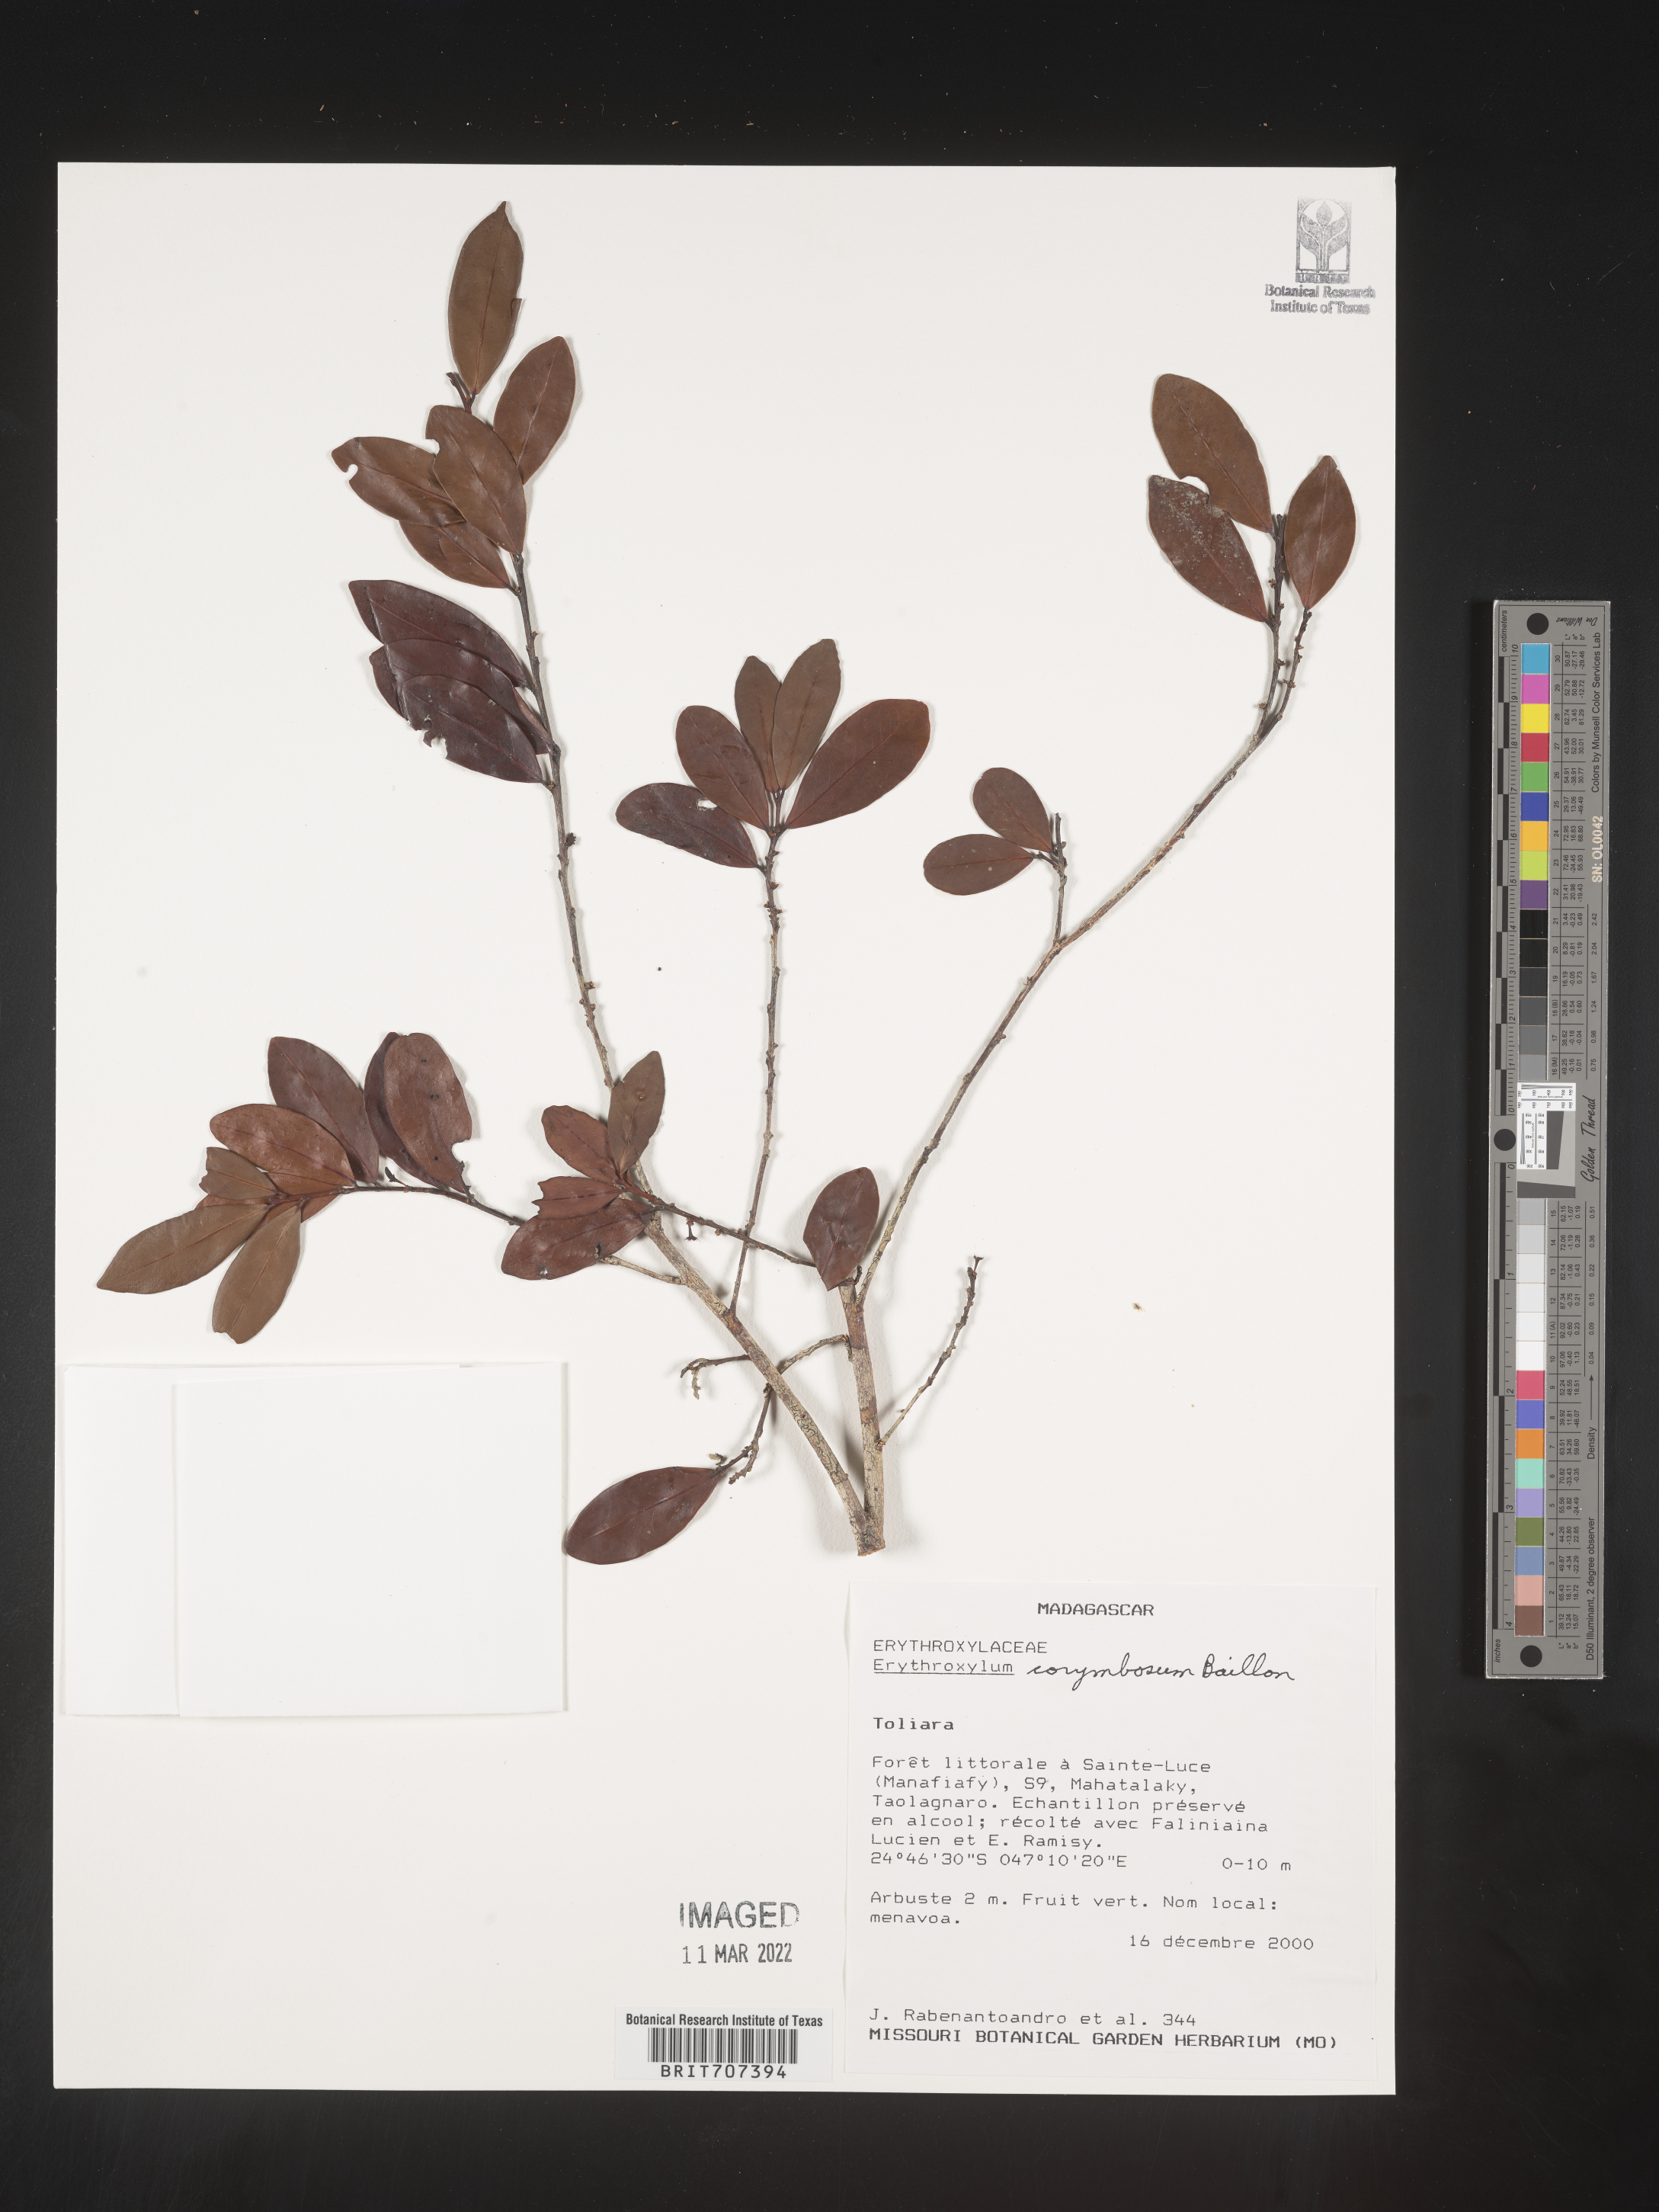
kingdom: Plantae
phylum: Tracheophyta
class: Magnoliopsida
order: Malpighiales
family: Erythroxylaceae
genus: Erythroxylum
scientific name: Erythroxylum
